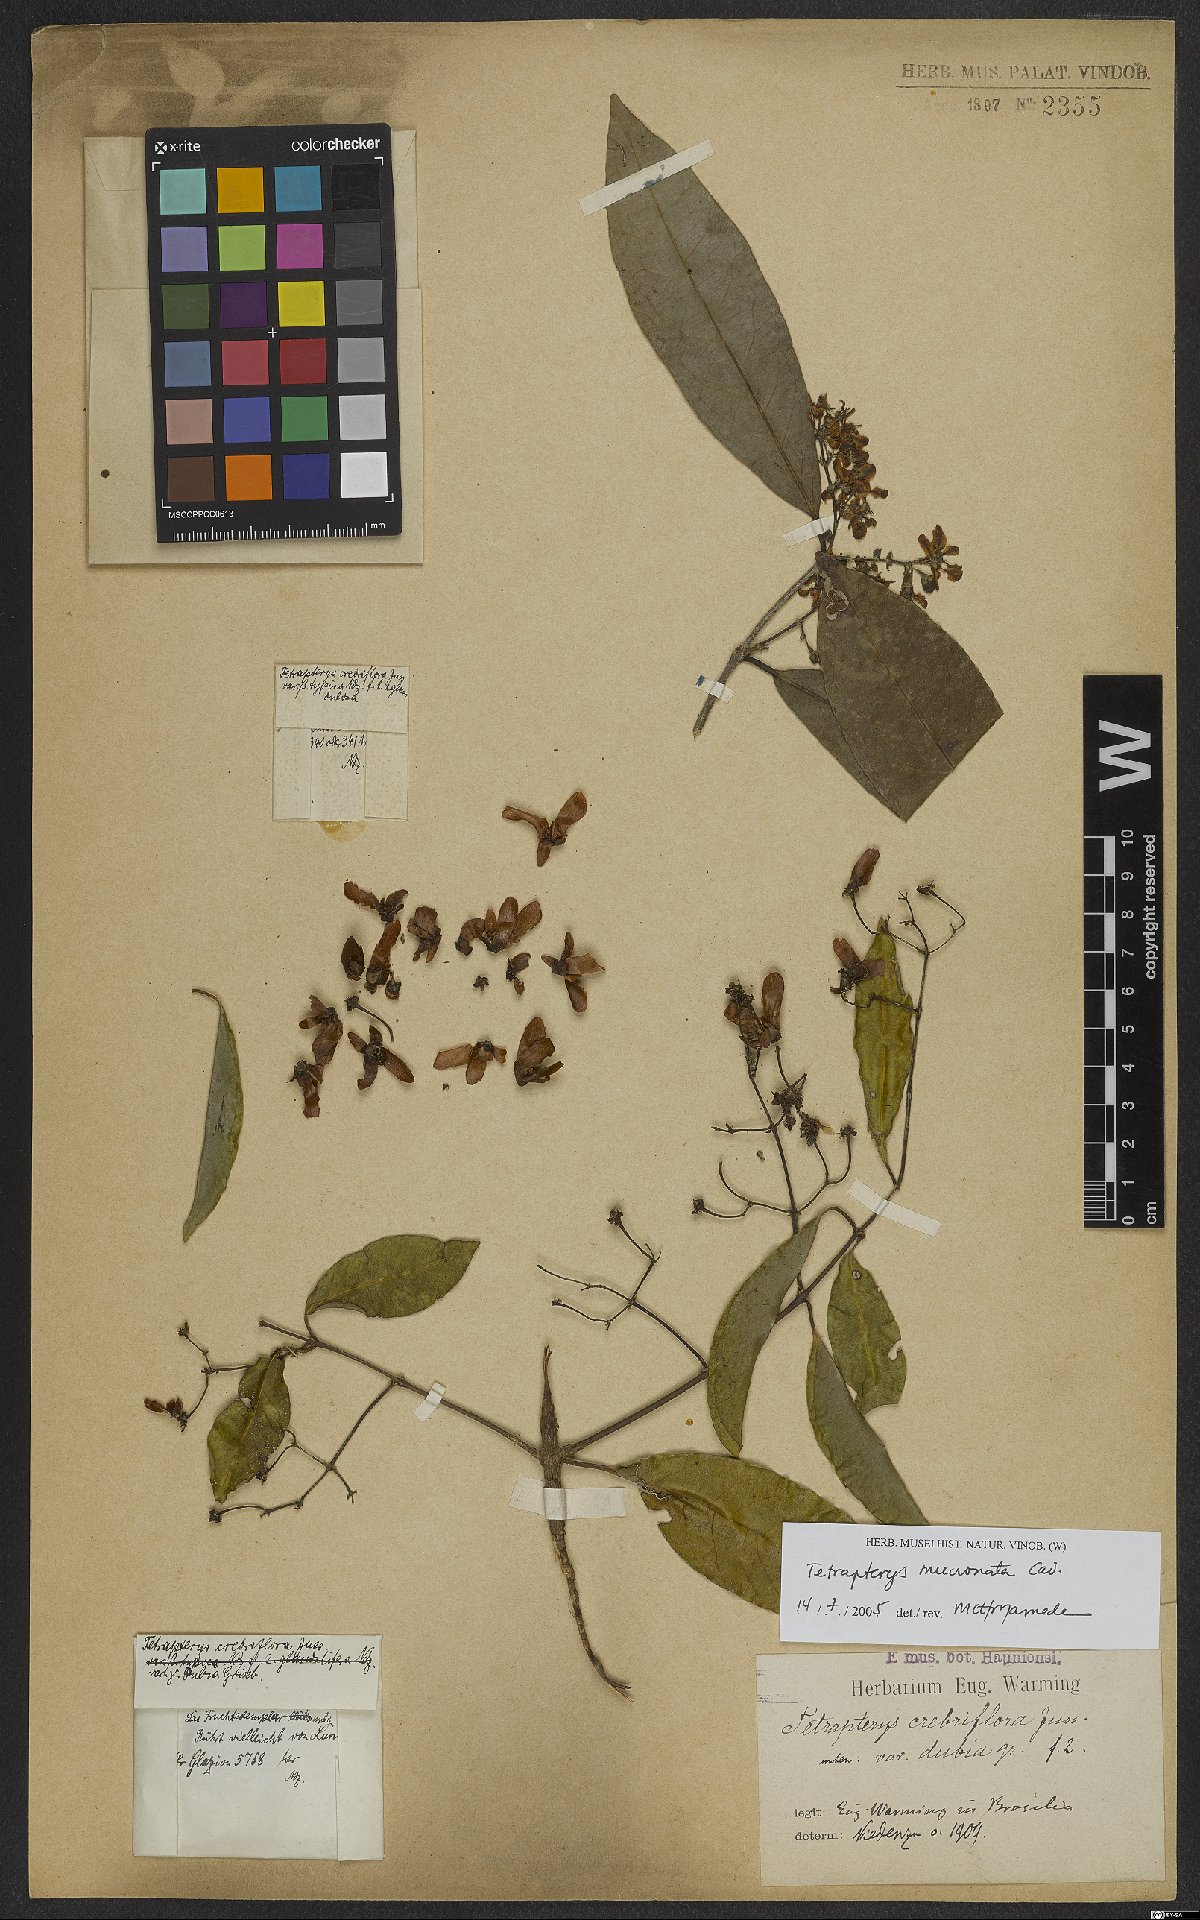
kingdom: Plantae
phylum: Tracheophyta
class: Magnoliopsida
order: Malpighiales
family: Malpighiaceae
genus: Tetrapterys
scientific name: Tetrapterys mucronata
